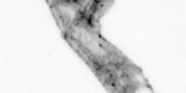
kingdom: Animalia
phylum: Arthropoda
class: Copepoda
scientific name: Copepoda
